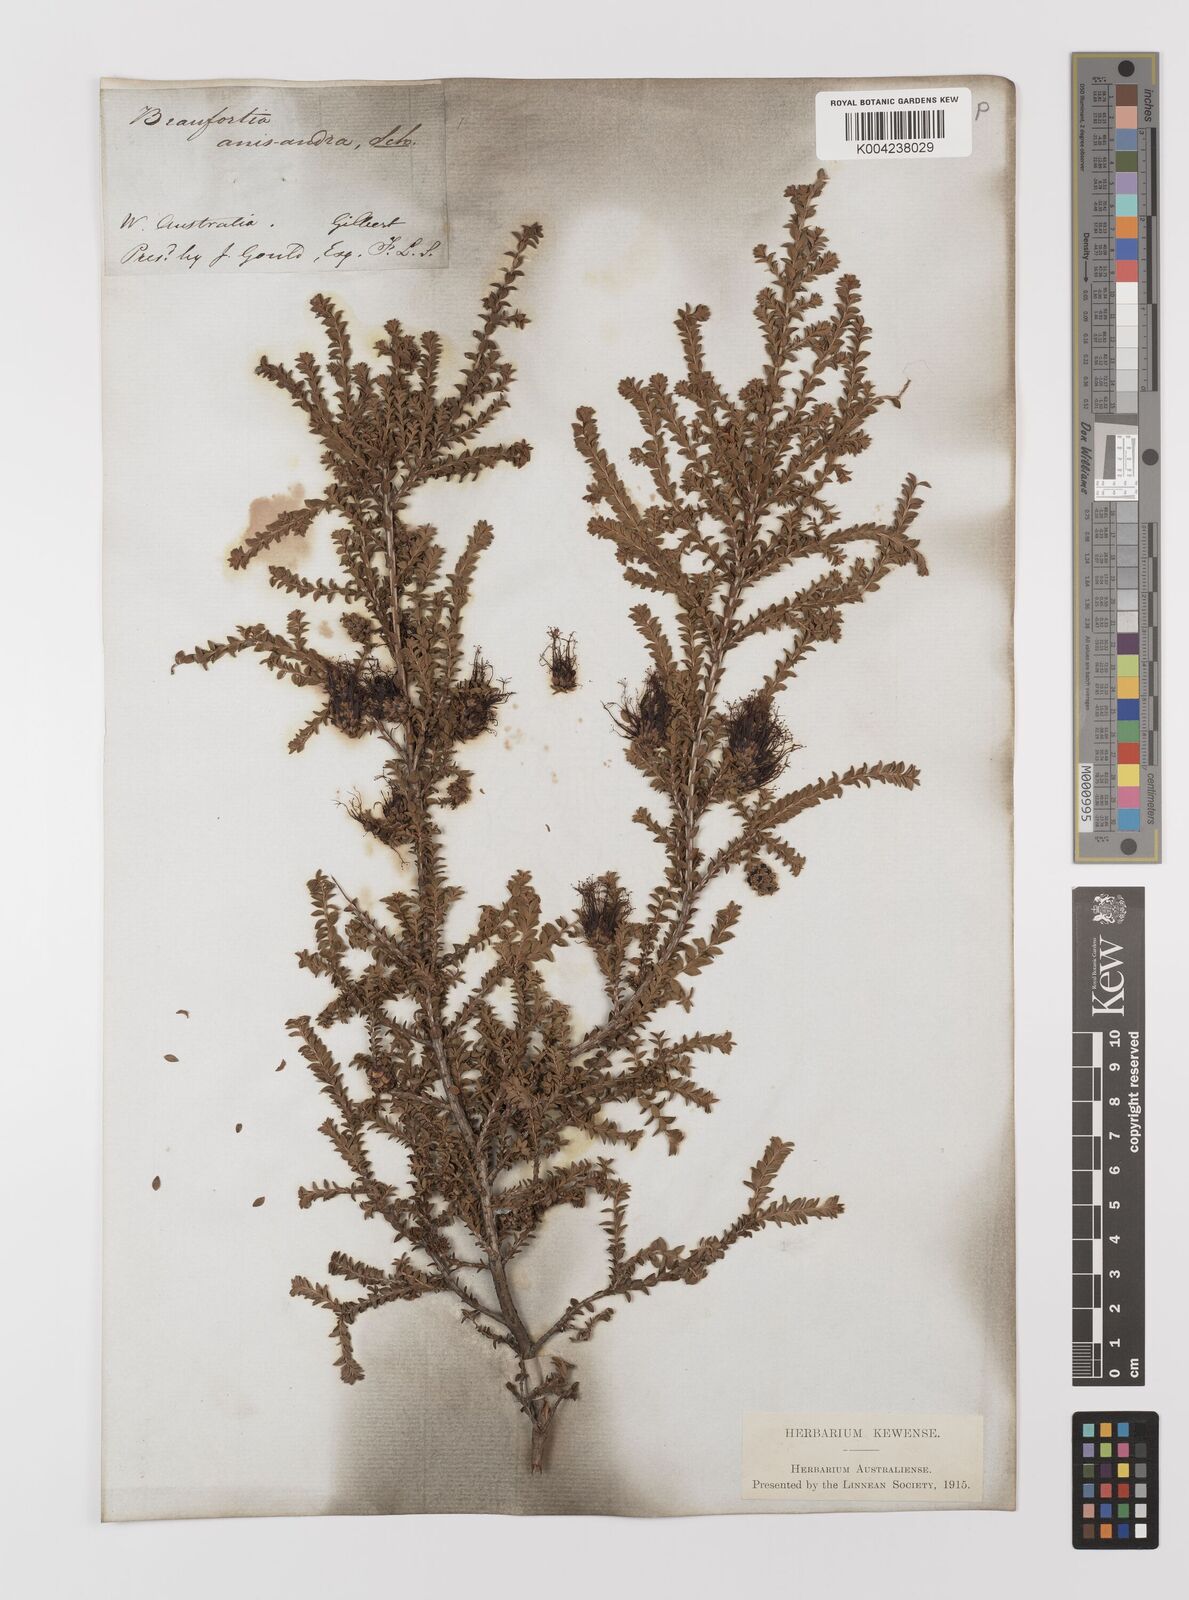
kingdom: Plantae
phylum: Tracheophyta
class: Magnoliopsida
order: Myrtales
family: Myrtaceae
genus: Melaleuca
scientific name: Melaleuca anisandra
